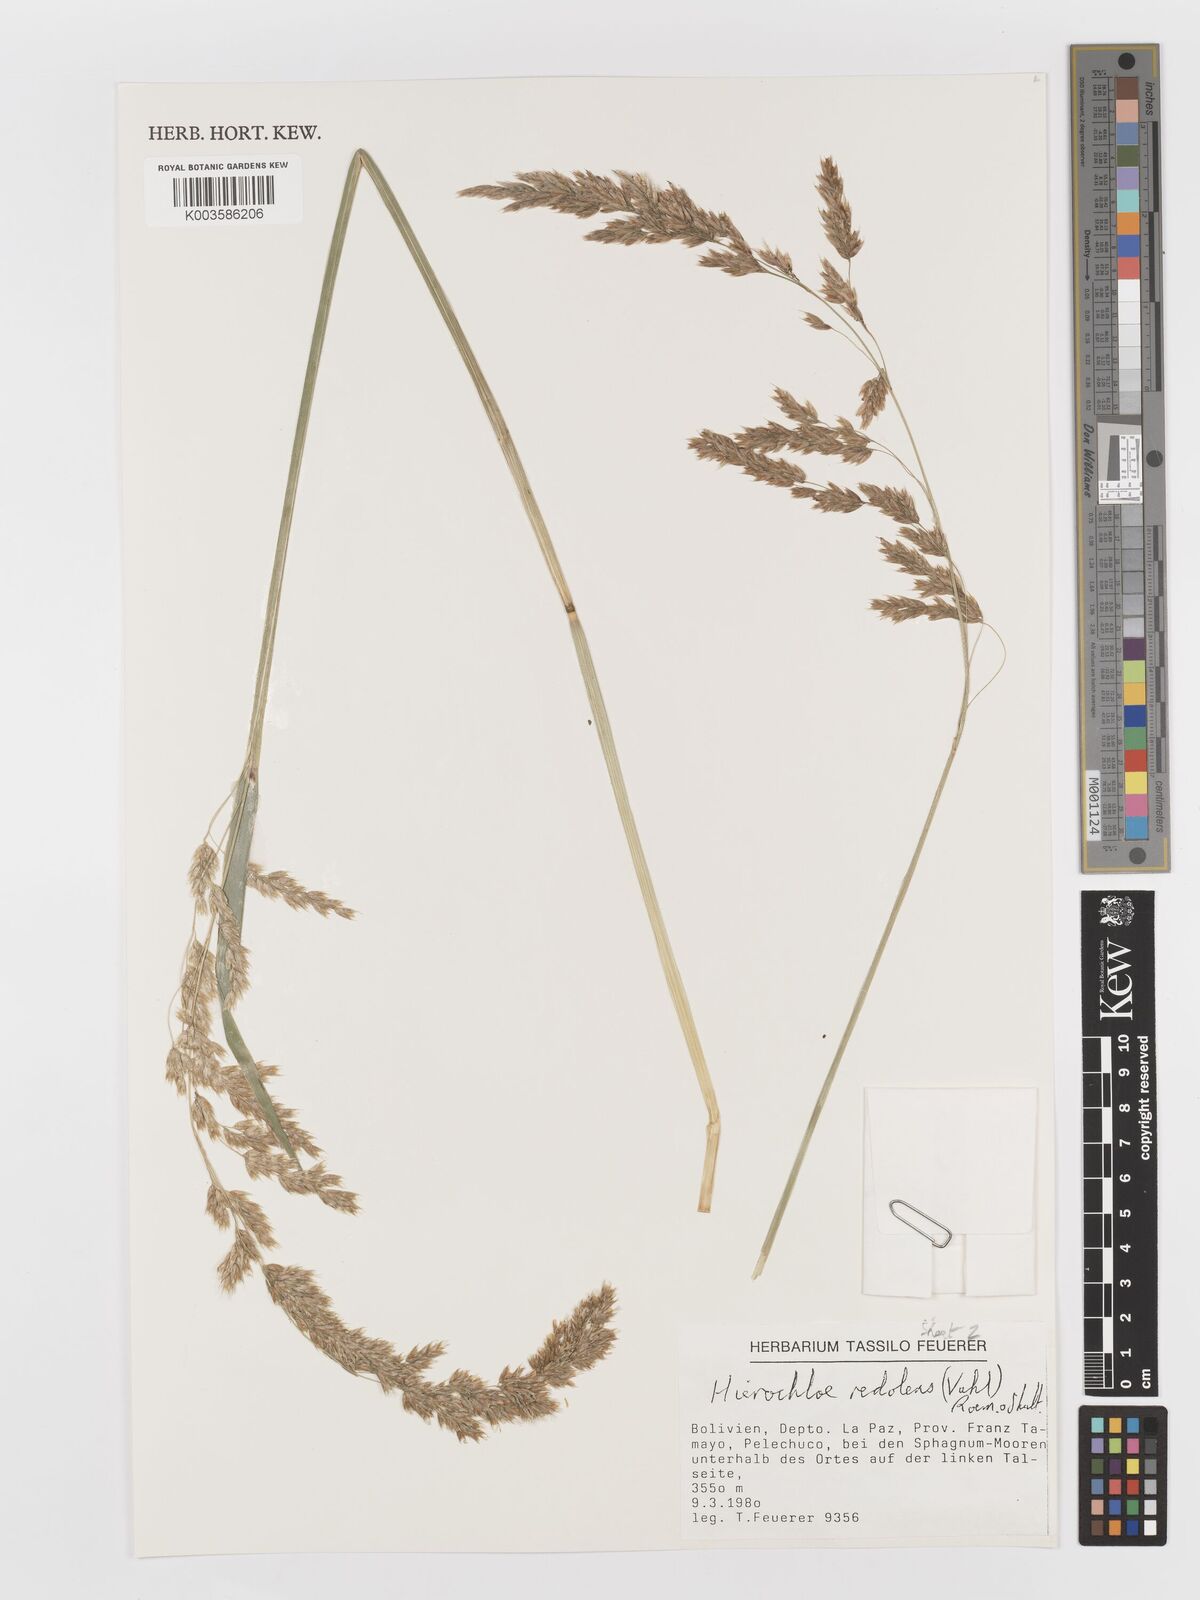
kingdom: Plantae
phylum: Tracheophyta
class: Liliopsida
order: Poales
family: Poaceae
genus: Anthoxanthum
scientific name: Anthoxanthum redolens
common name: Sweet holy grass
